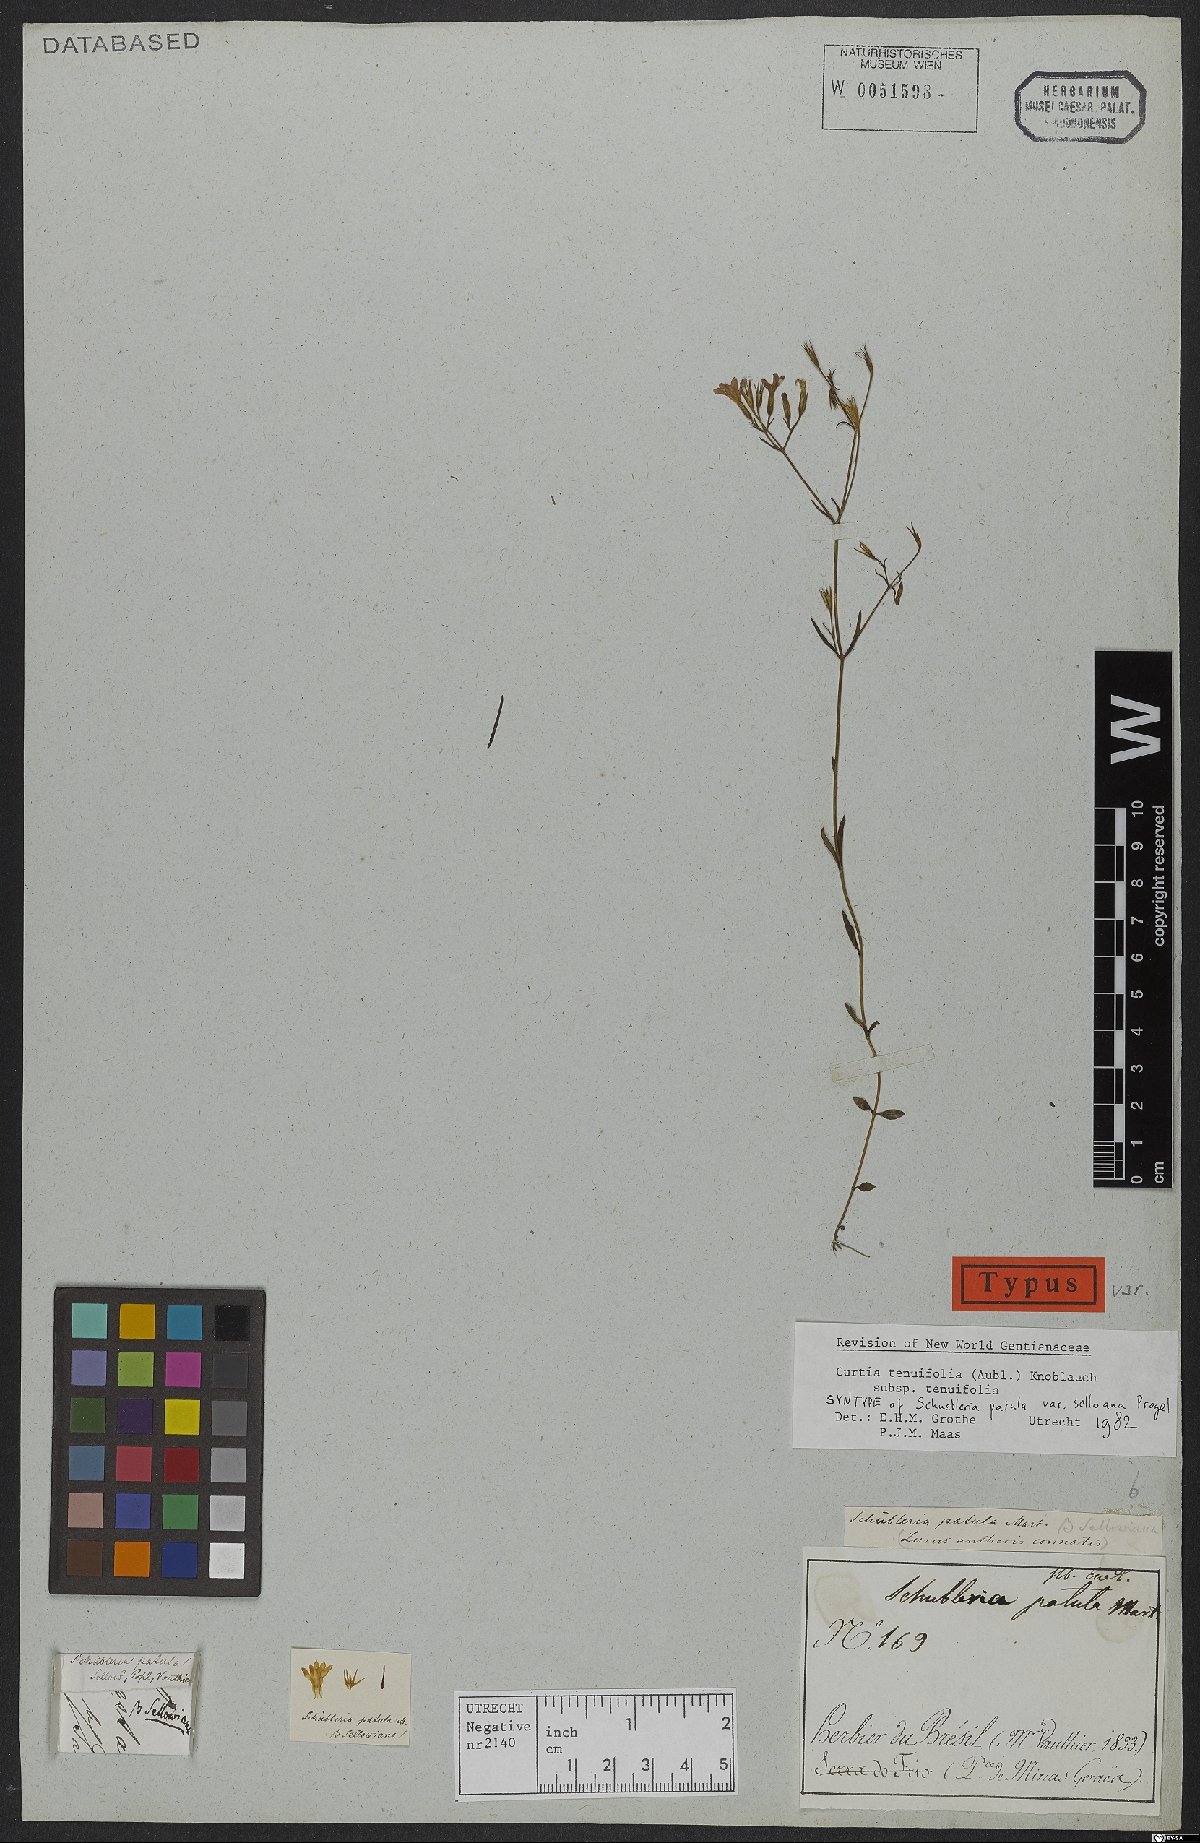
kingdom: Plantae
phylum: Tracheophyta
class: Magnoliopsida
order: Gentianales
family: Gentianaceae
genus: Curtia
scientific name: Curtia tenuifolia
